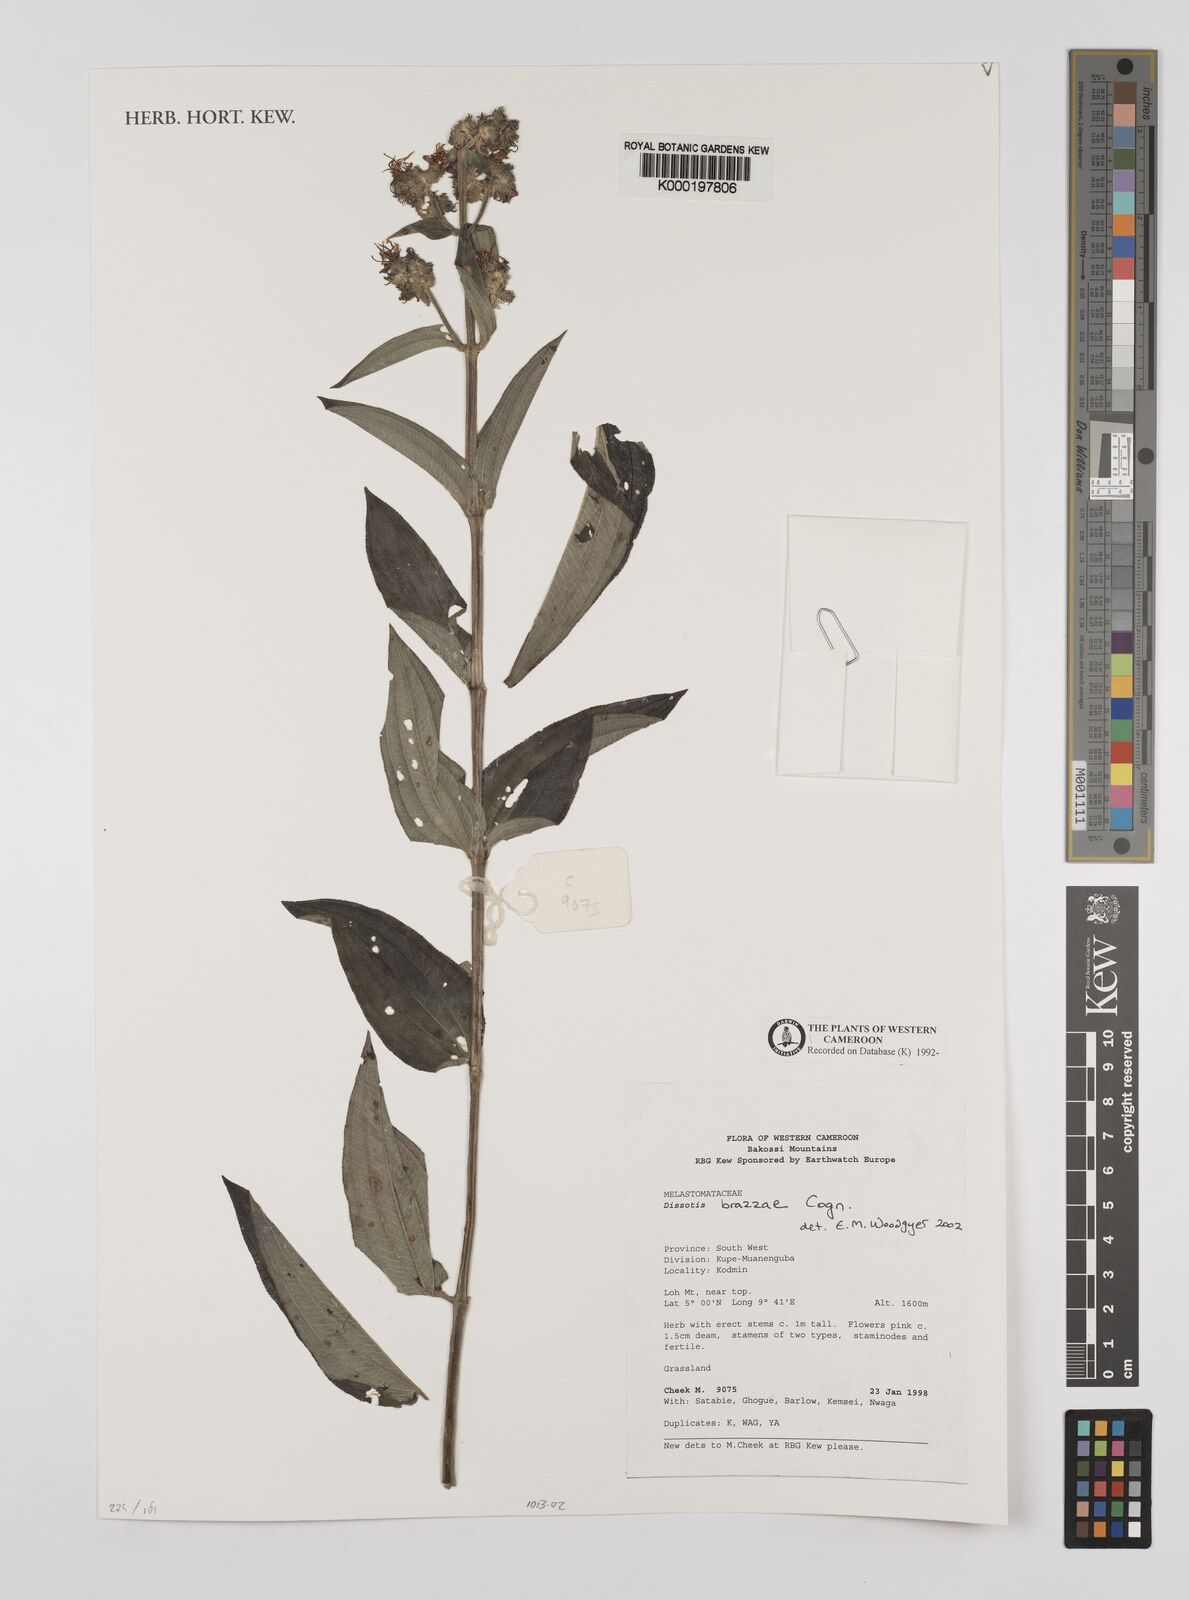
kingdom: Plantae
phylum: Tracheophyta
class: Magnoliopsida
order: Myrtales
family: Melastomataceae
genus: Dupineta
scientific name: Dupineta brazzae
